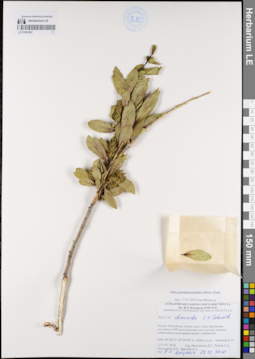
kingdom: Plantae
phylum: Tracheophyta
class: Magnoliopsida
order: Malpighiales
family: Salicaceae
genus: Salix
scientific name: Salix pseudopentandra
